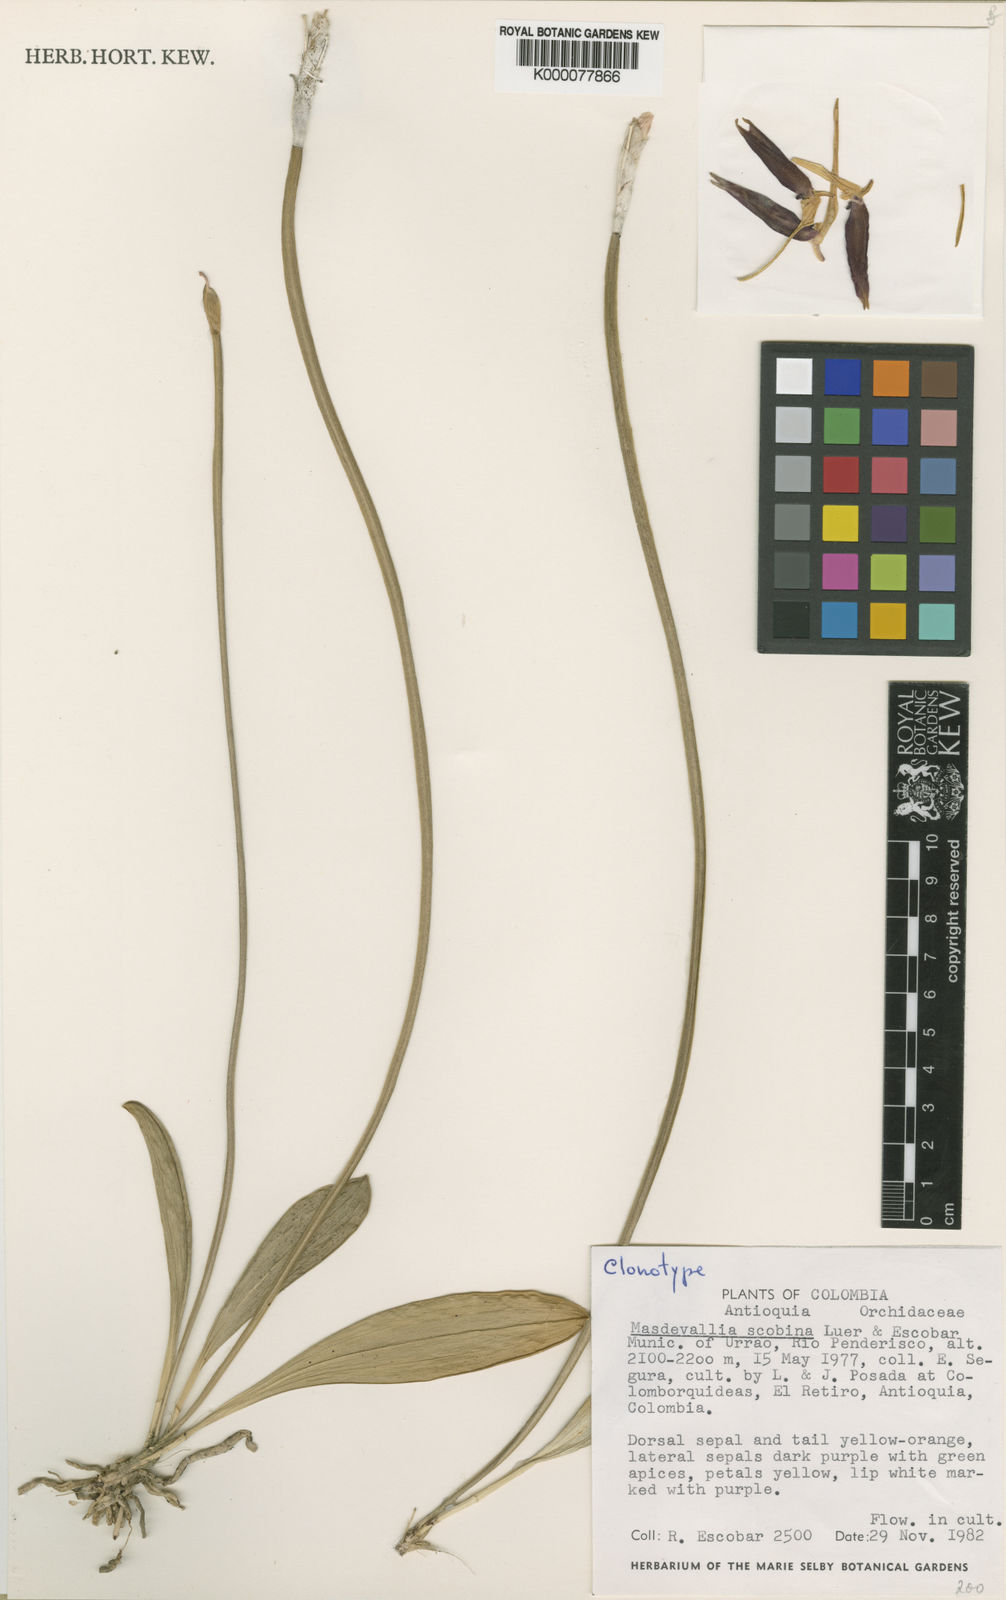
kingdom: Plantae
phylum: Tracheophyta
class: Liliopsida
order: Asparagales
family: Orchidaceae
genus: Masdevallia
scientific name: Masdevallia scobina
